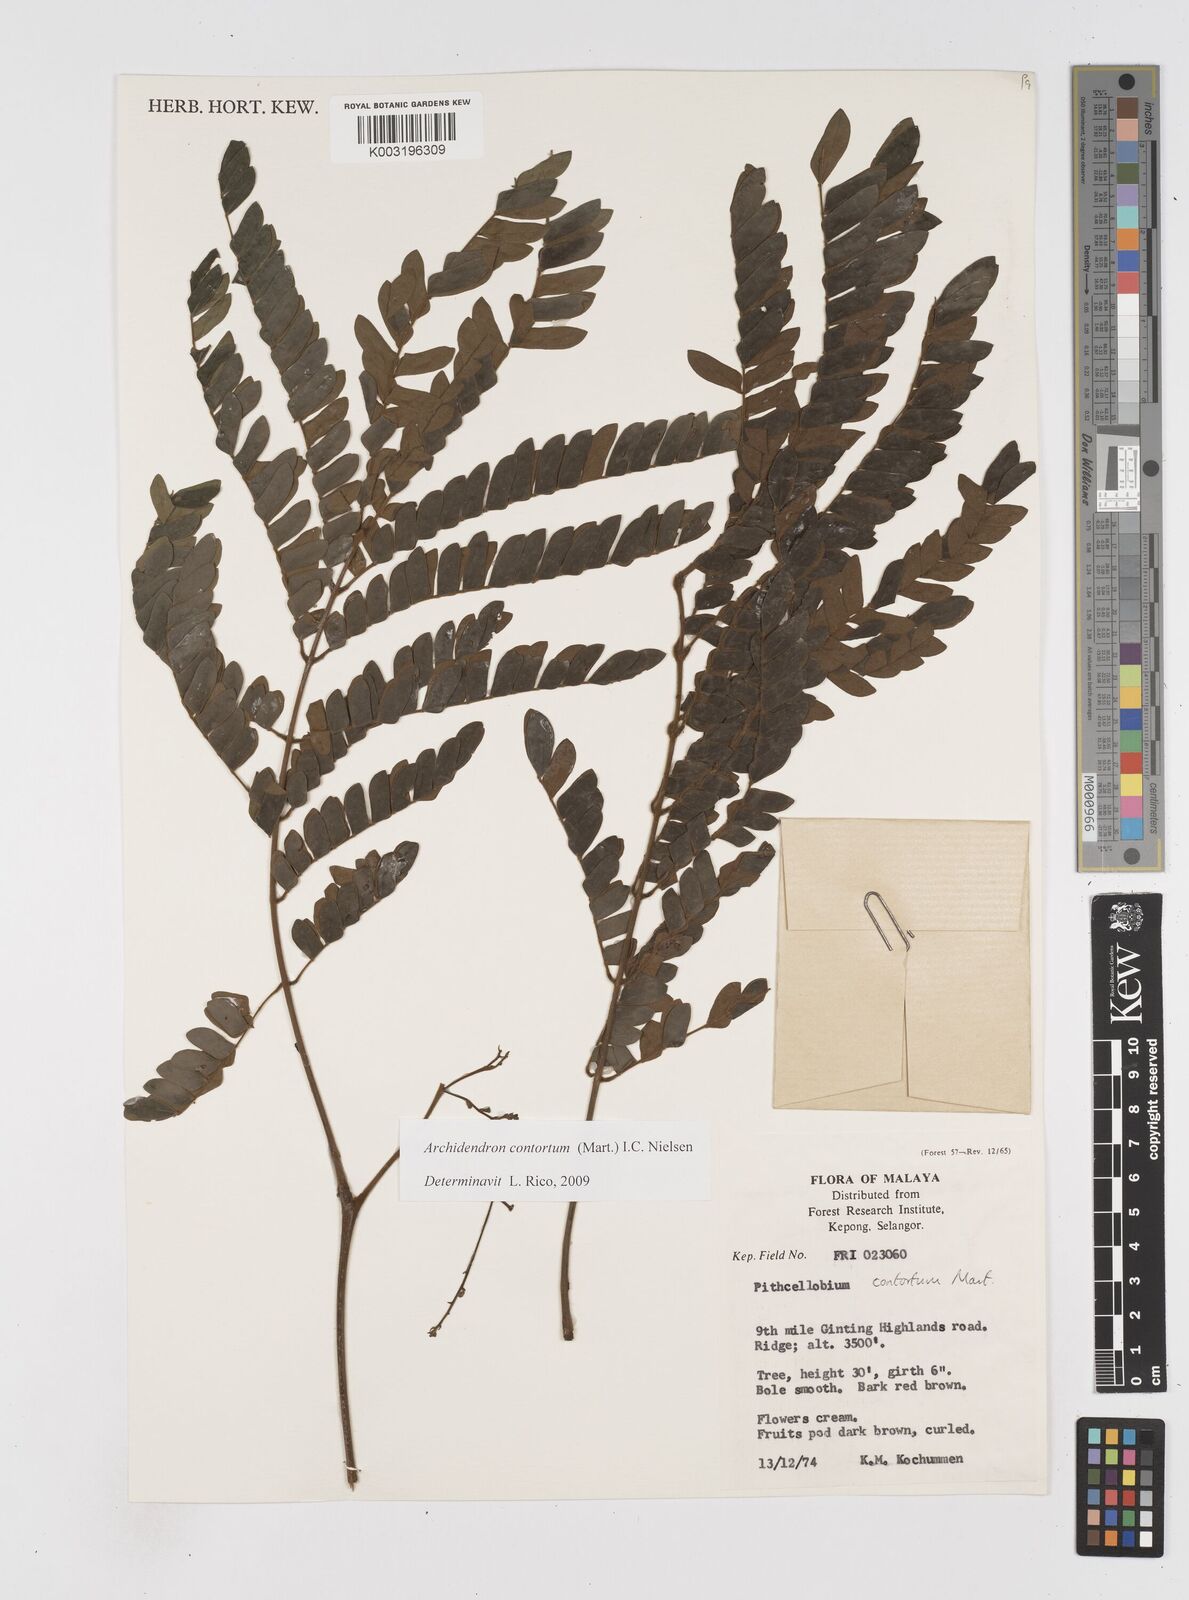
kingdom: Plantae
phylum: Tracheophyta
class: Magnoliopsida
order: Fabales
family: Fabaceae
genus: Archidendron
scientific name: Archidendron contortum
